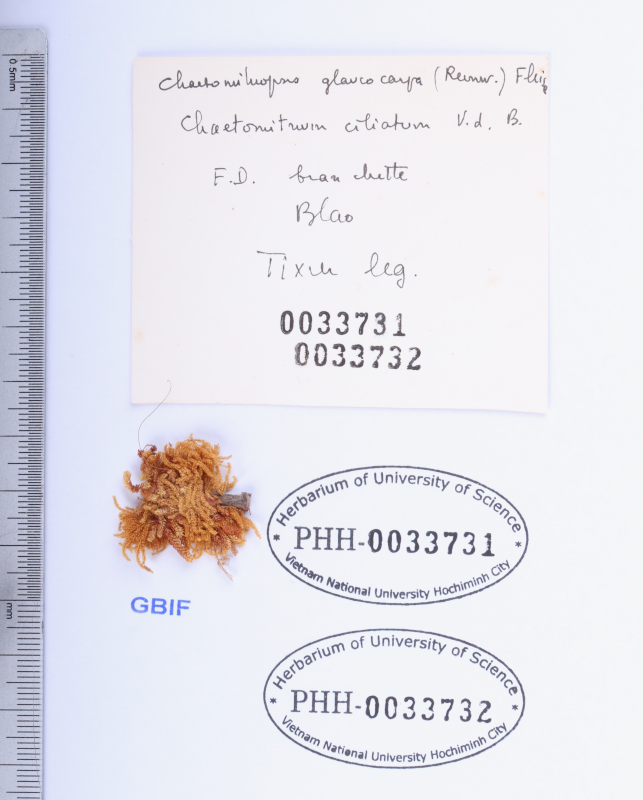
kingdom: Plantae
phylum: Bryophyta
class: Bryopsida
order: Hypnales
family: Symphyodontaceae
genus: Chaetomitrium
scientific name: Chaetomitrium ciliatum
